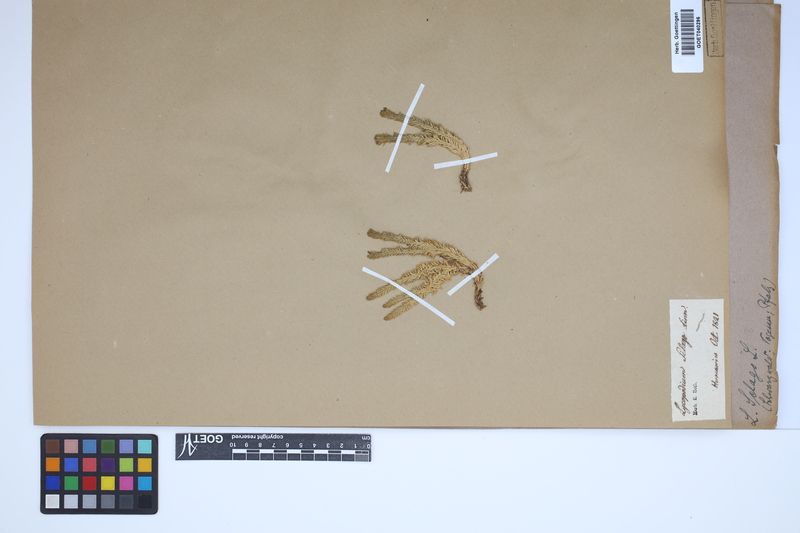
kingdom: Plantae
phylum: Tracheophyta
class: Lycopodiopsida
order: Lycopodiales
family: Lycopodiaceae
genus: Huperzia
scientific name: Huperzia selago
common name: Northern firmoss
